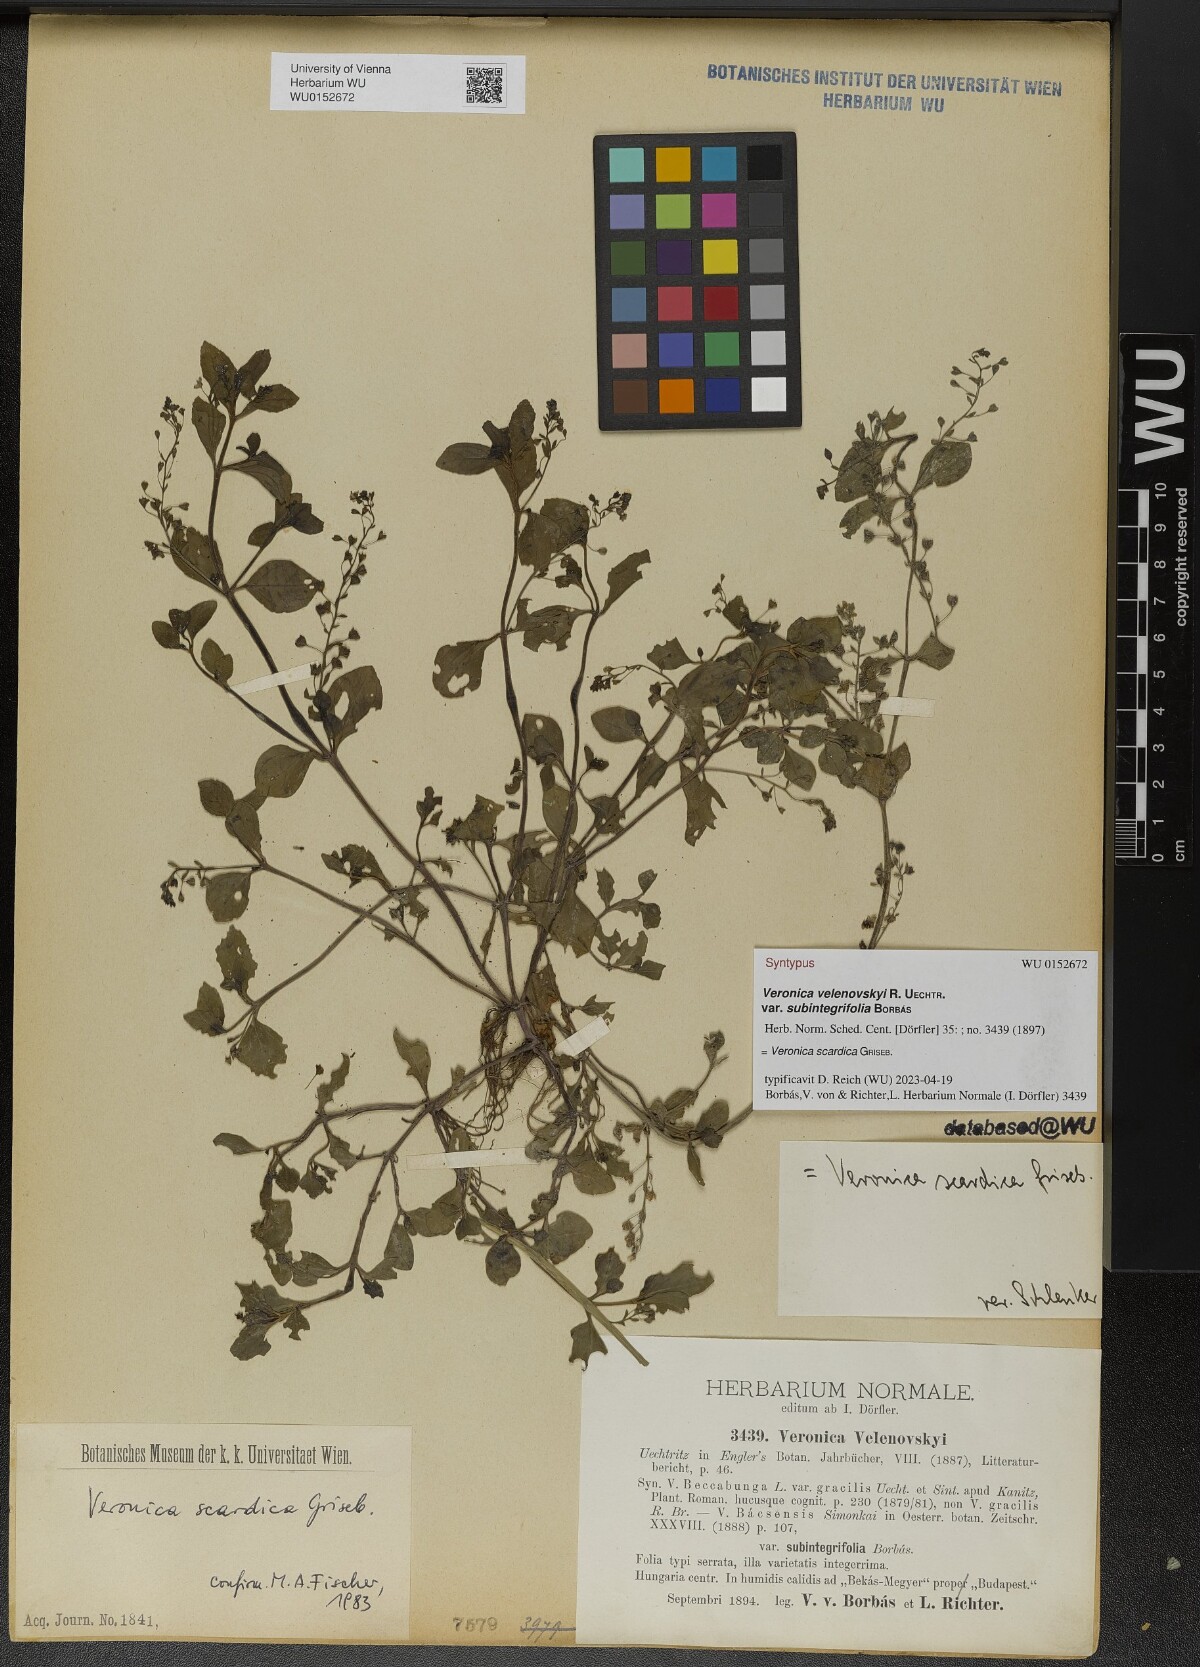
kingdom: Plantae
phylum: Tracheophyta
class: Magnoliopsida
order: Lamiales
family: Plantaginaceae
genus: Veronica
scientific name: Veronica scardica
